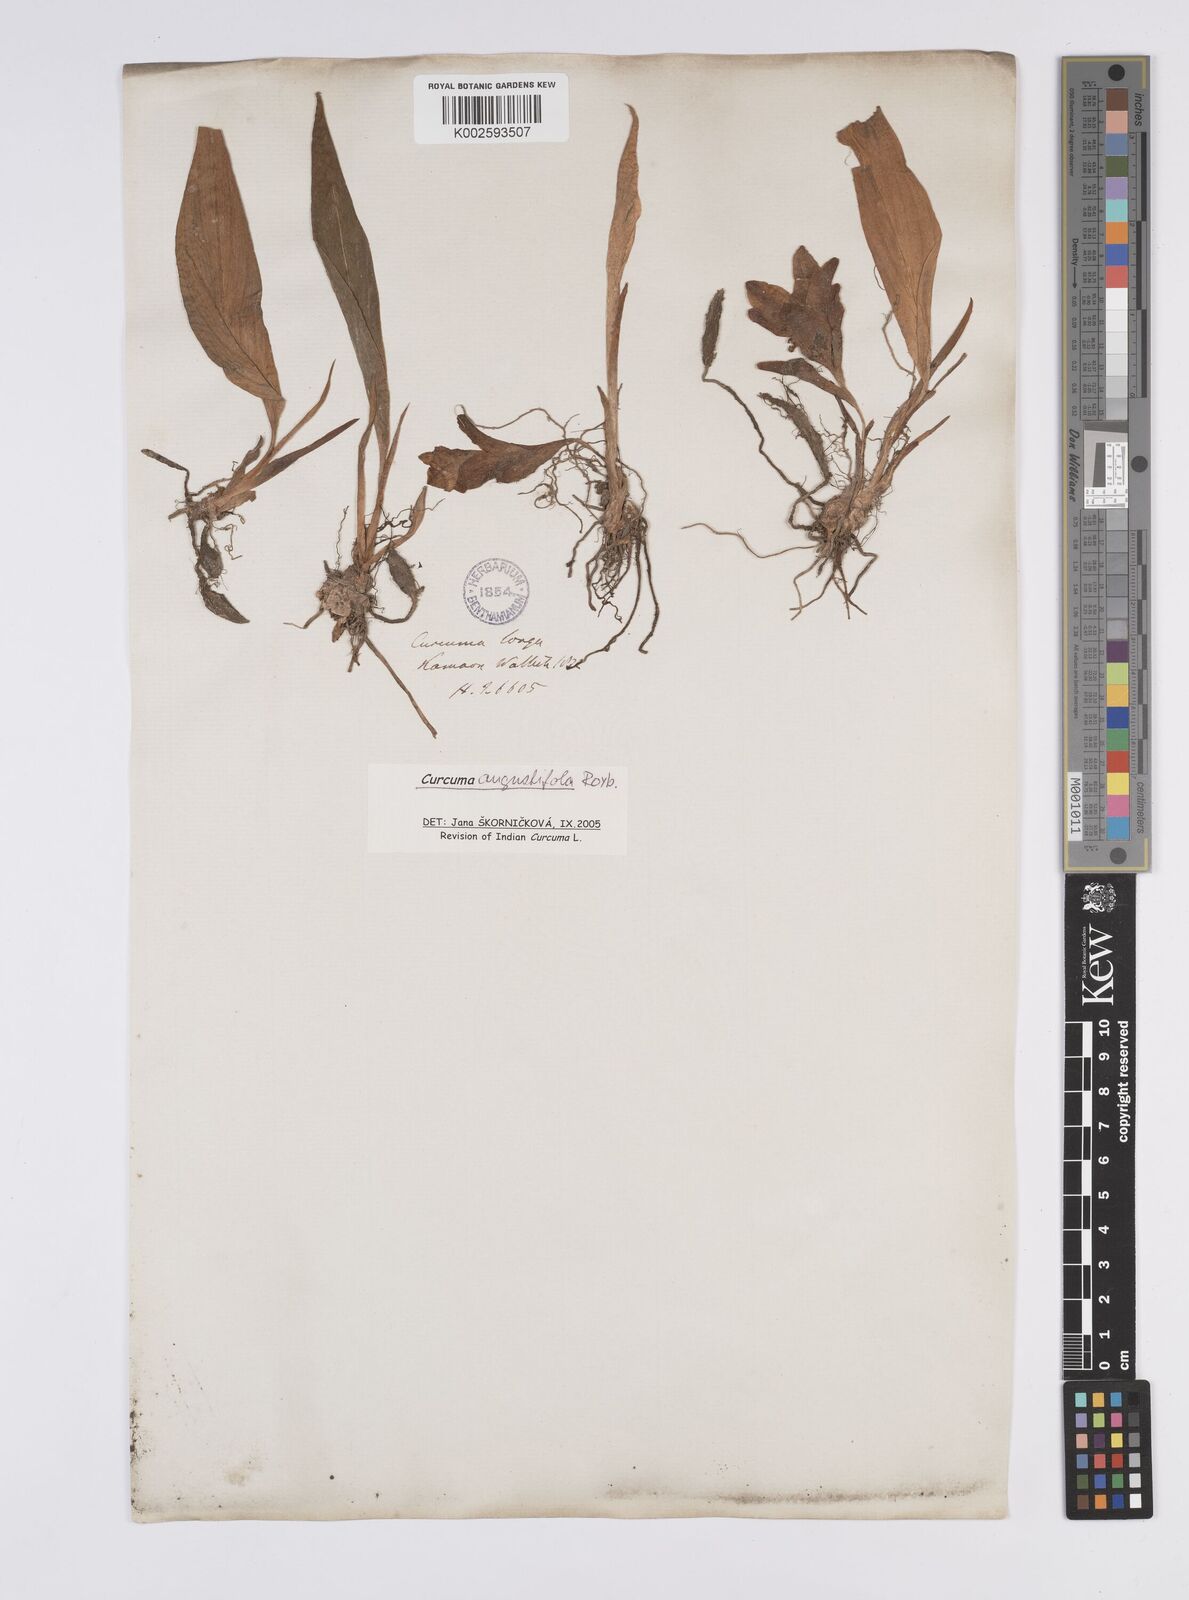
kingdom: Plantae
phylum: Tracheophyta
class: Liliopsida
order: Zingiberales
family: Zingiberaceae
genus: Curcuma
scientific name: Curcuma angustifolia
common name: East indian arrowroot
